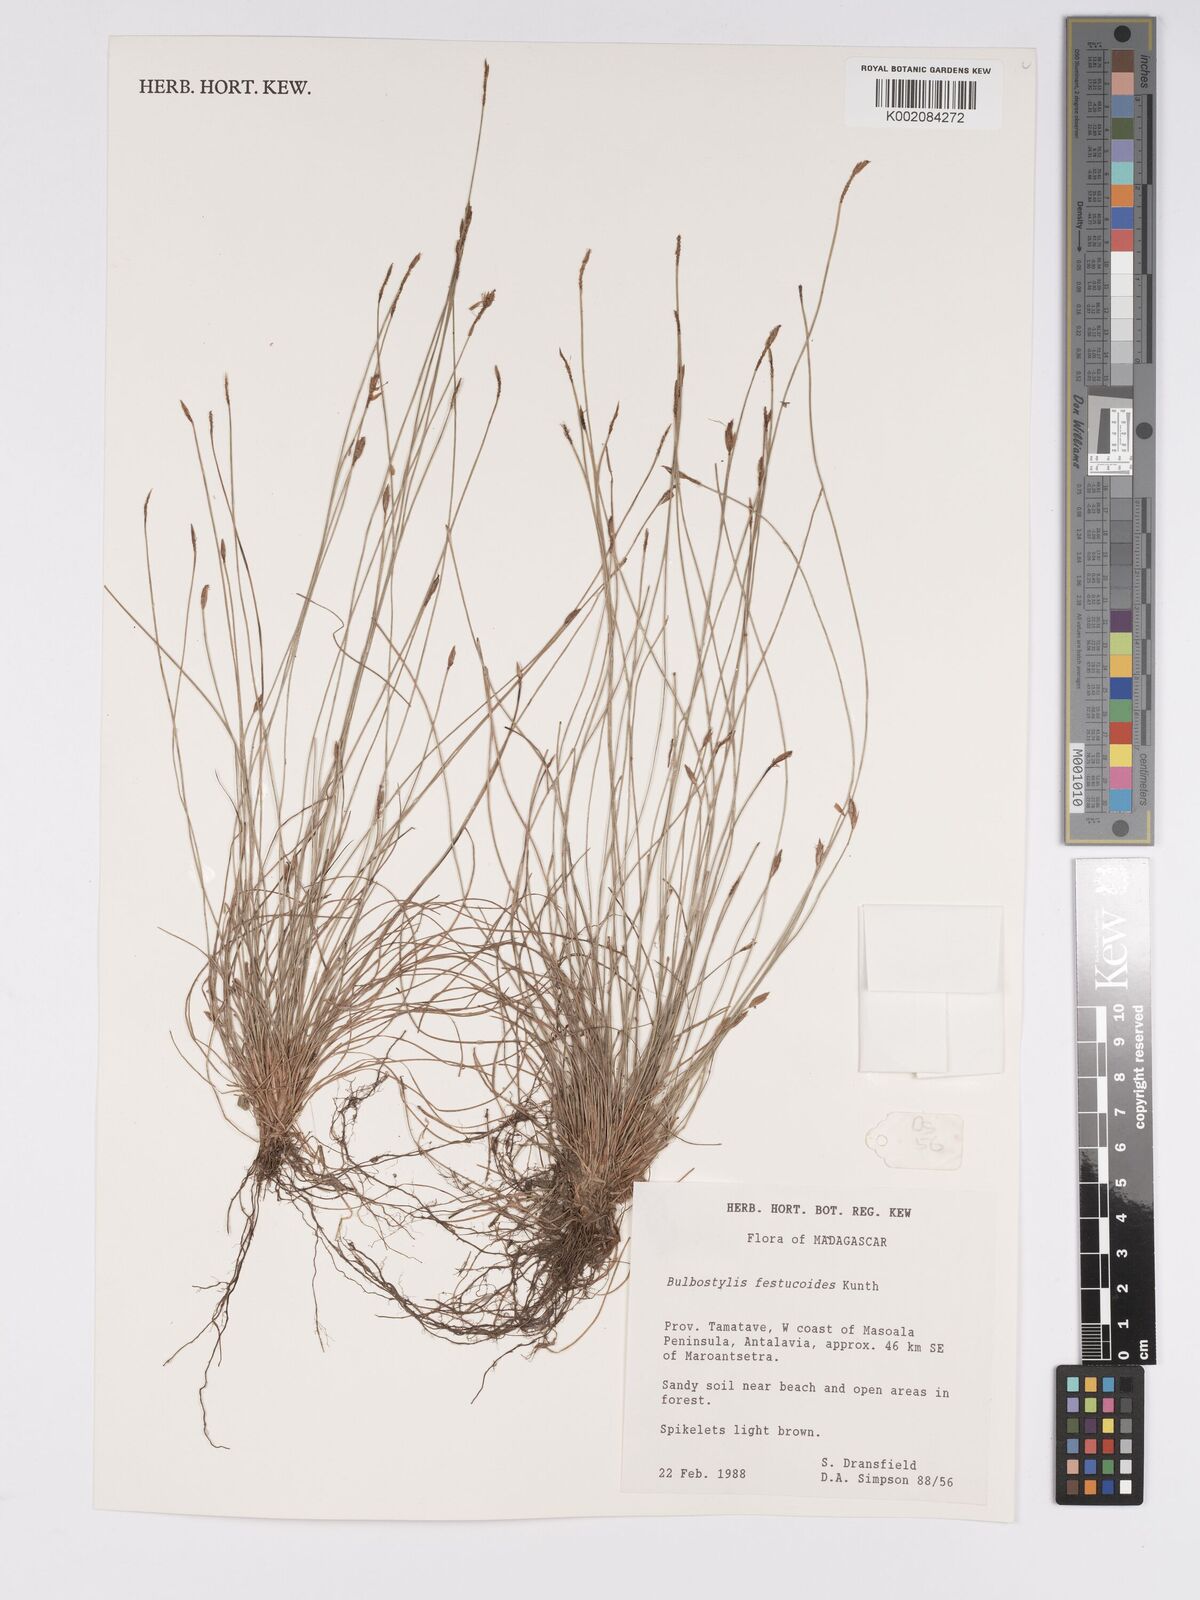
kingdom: Plantae
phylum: Tracheophyta
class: Liliopsida
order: Poales
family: Cyperaceae
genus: Bulbostylis
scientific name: Bulbostylis festucoides
